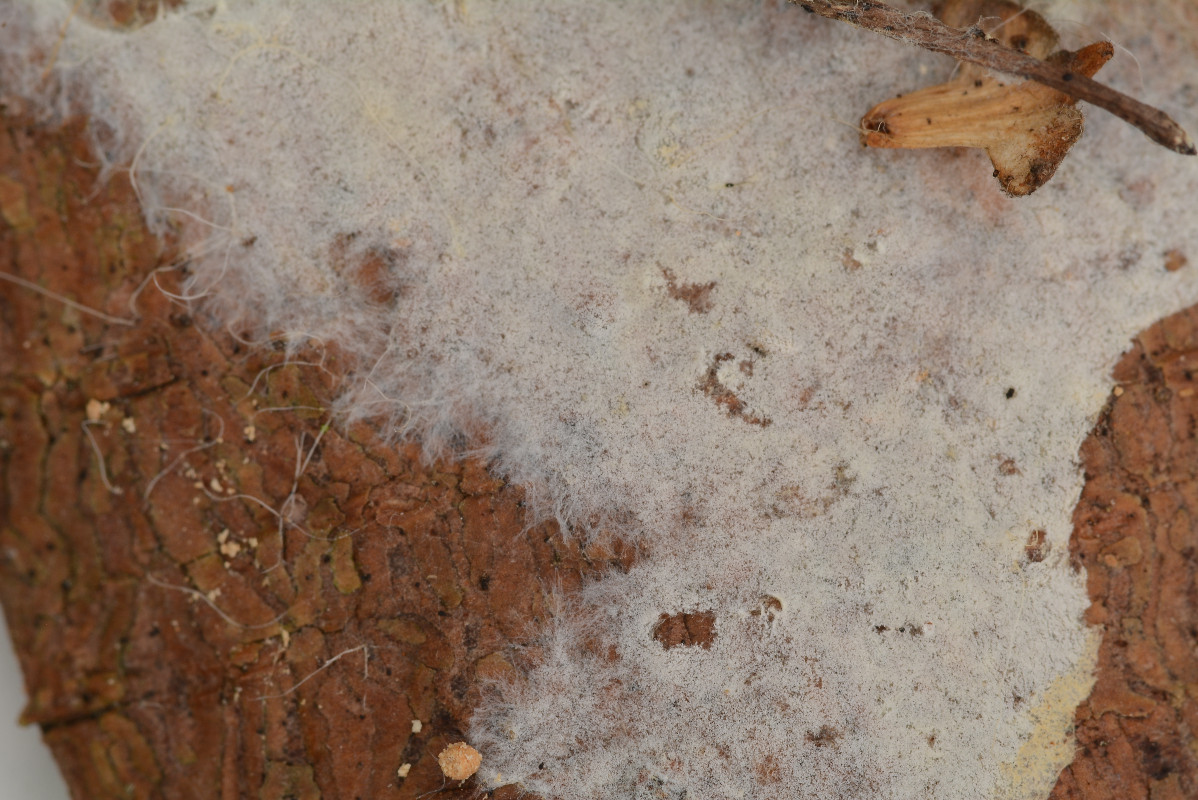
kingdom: Fungi
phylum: Basidiomycota
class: Agaricomycetes
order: Atheliales
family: Atheliaceae
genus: Amphinema
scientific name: Amphinema byssoides
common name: almindelig rodhinde
